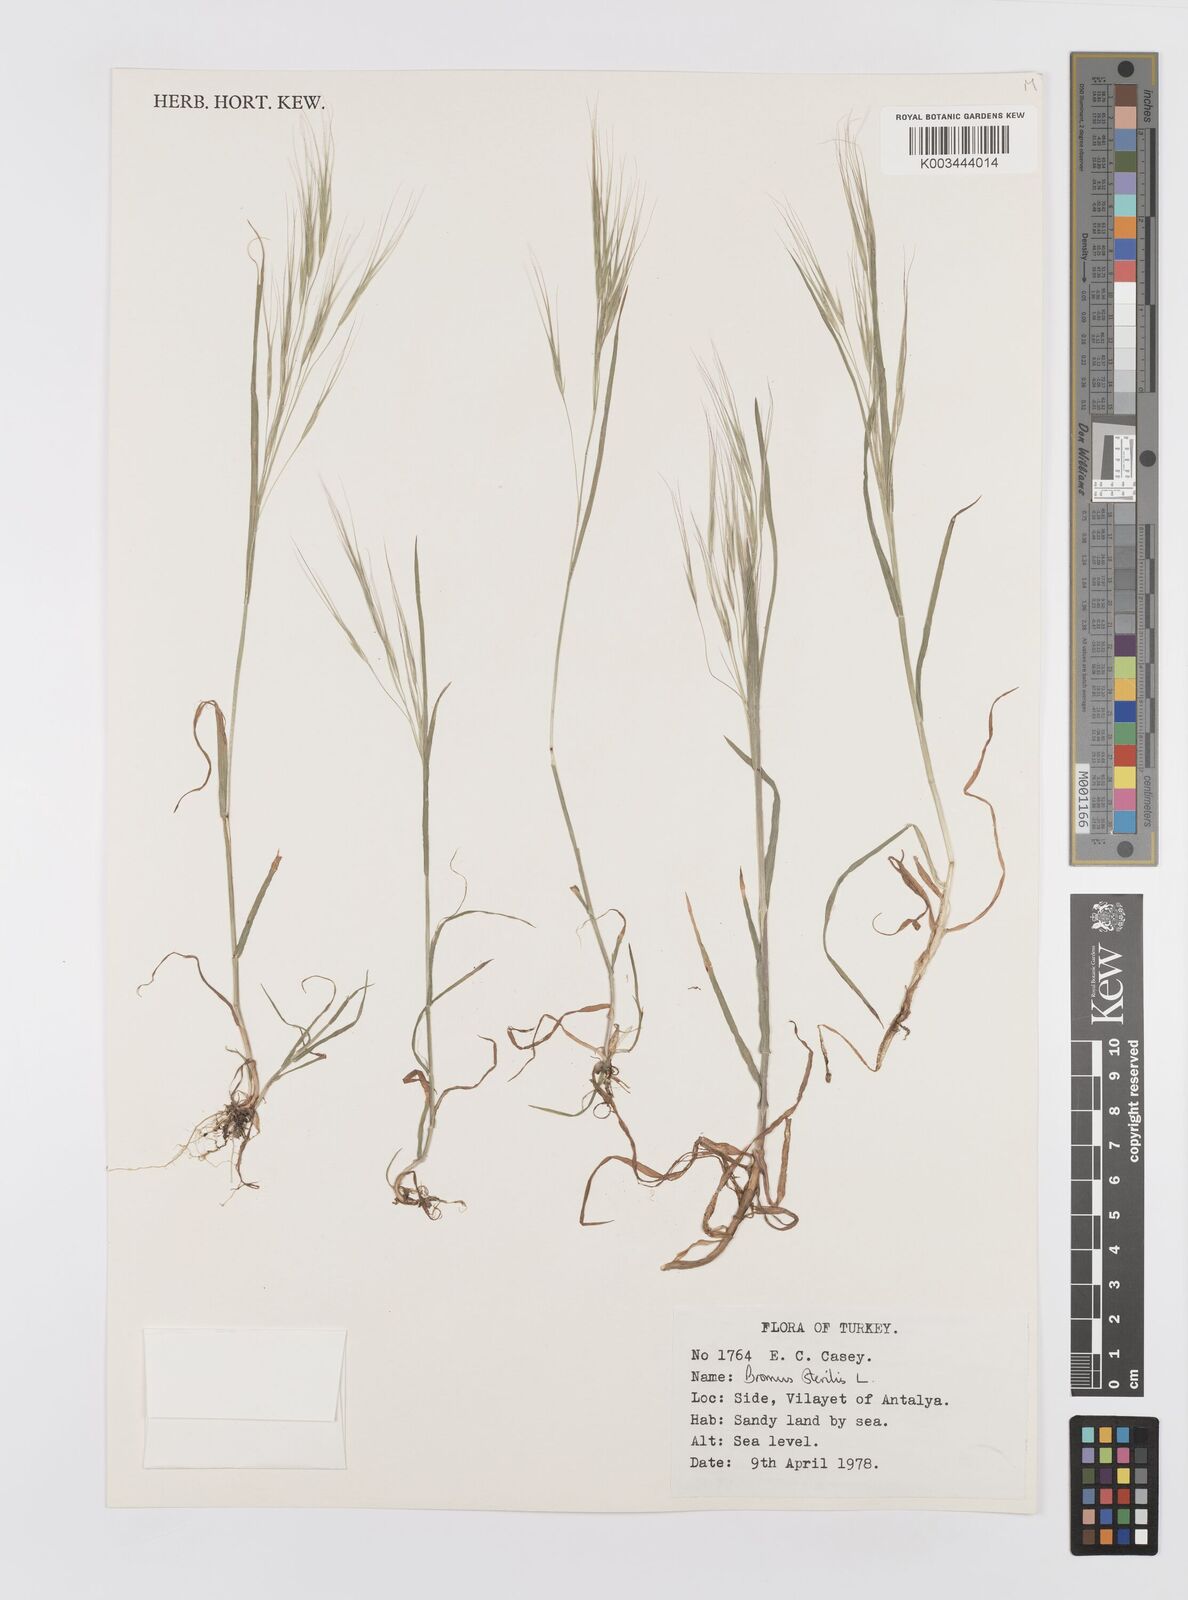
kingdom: Plantae
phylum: Tracheophyta
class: Liliopsida
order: Poales
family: Poaceae
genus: Bromus
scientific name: Bromus sterilis
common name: Poverty brome
